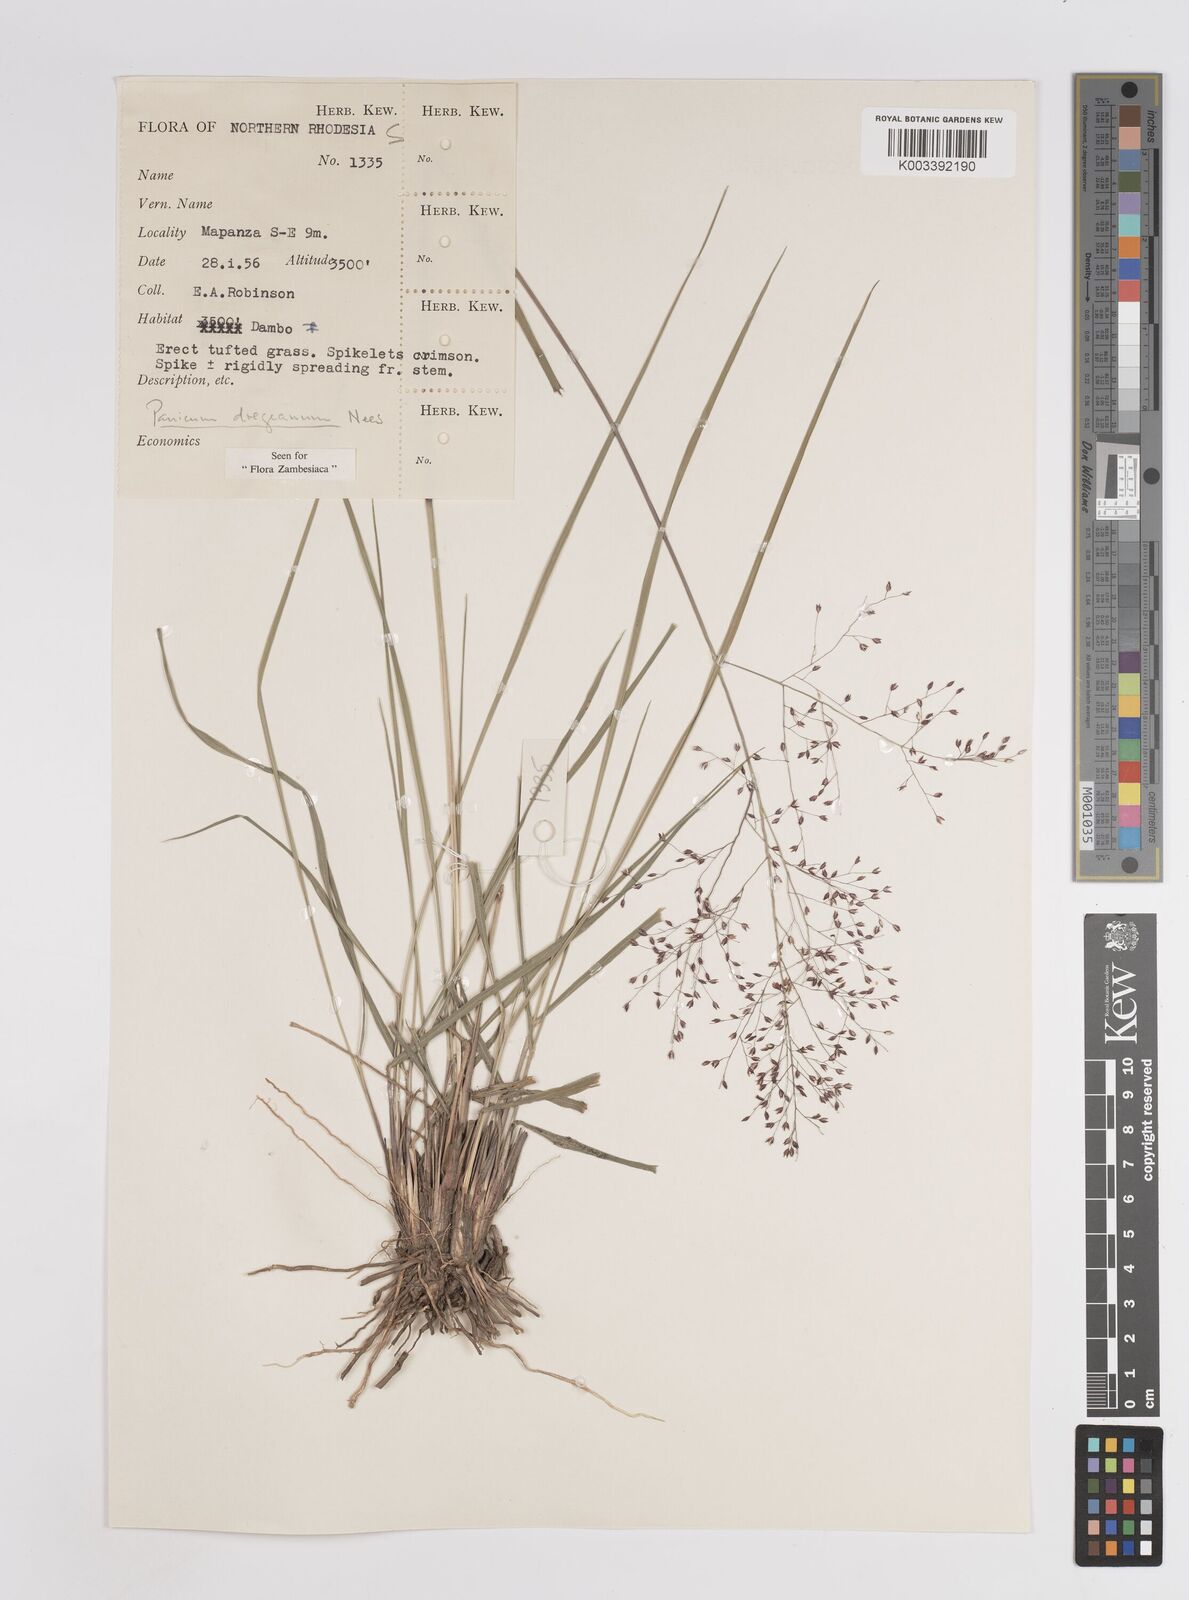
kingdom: Plantae
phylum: Tracheophyta
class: Liliopsida
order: Poales
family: Poaceae
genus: Panicum
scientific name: Panicum dregeanum
